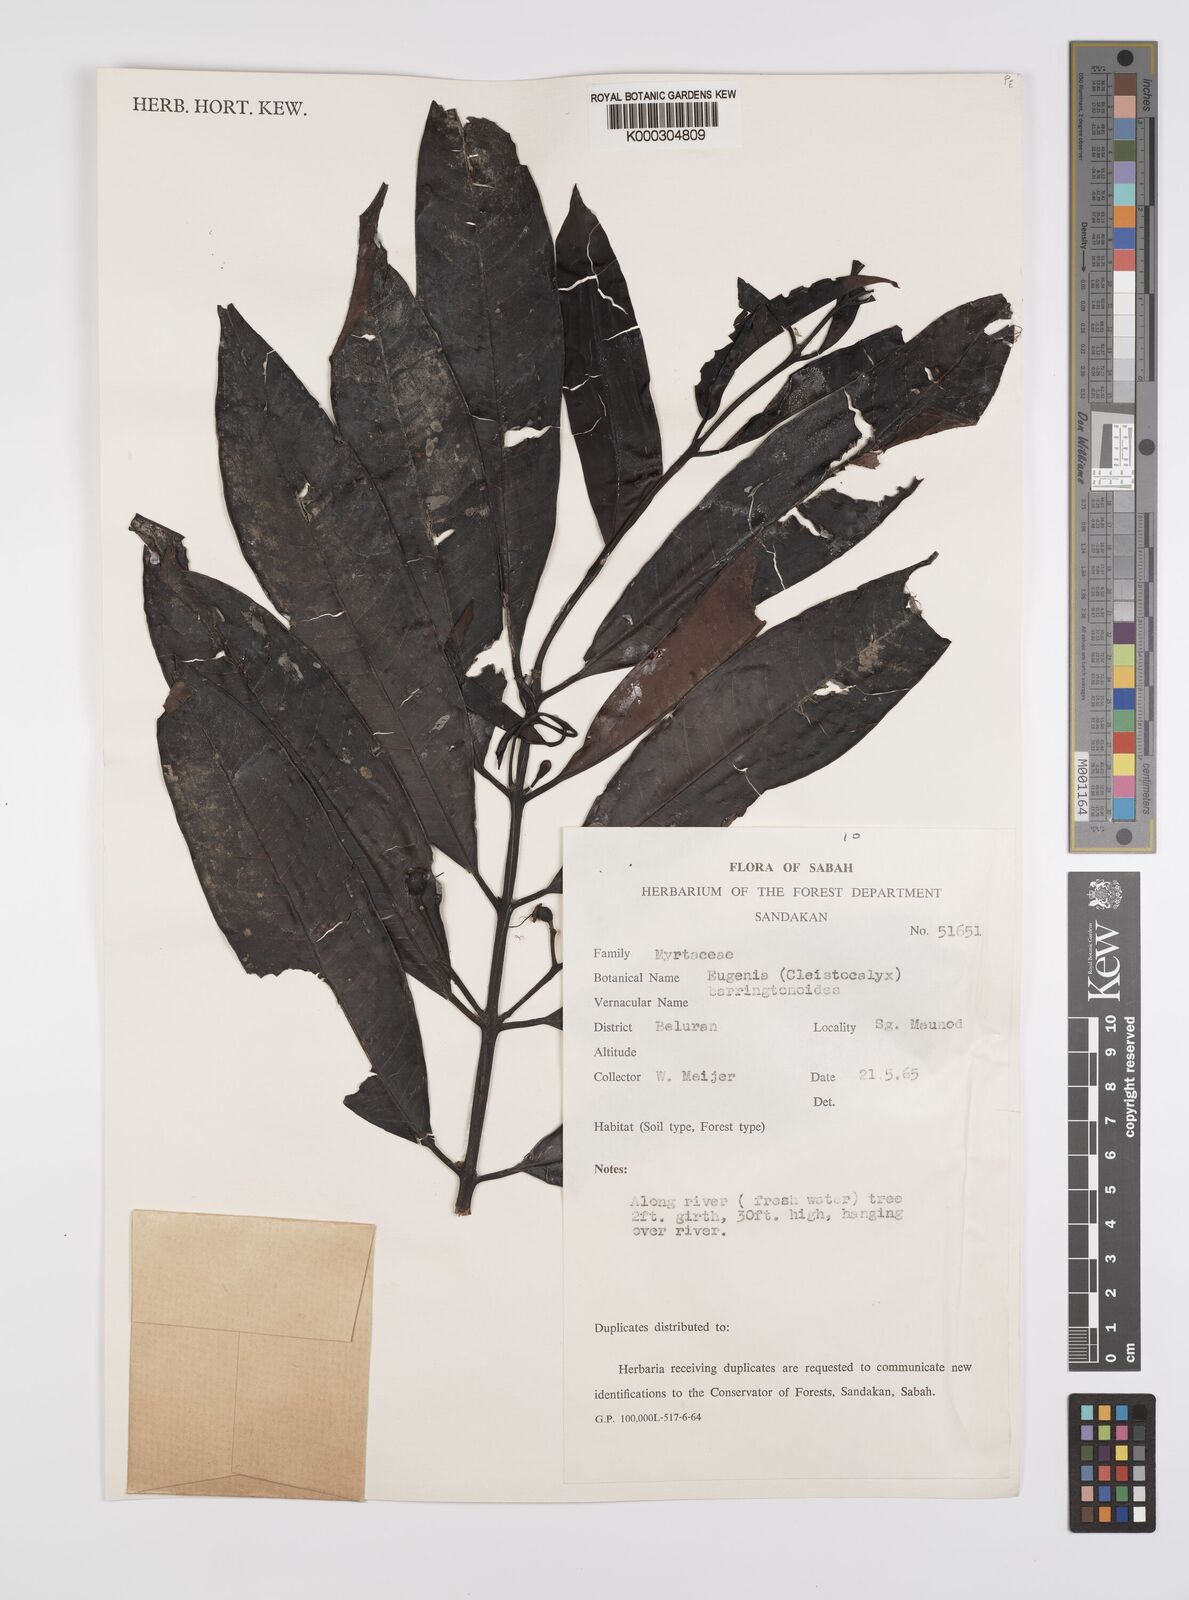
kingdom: Plantae
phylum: Tracheophyta
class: Magnoliopsida
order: Myrtales
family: Myrtaceae
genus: Syzygium
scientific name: Syzygium barringtonioides
